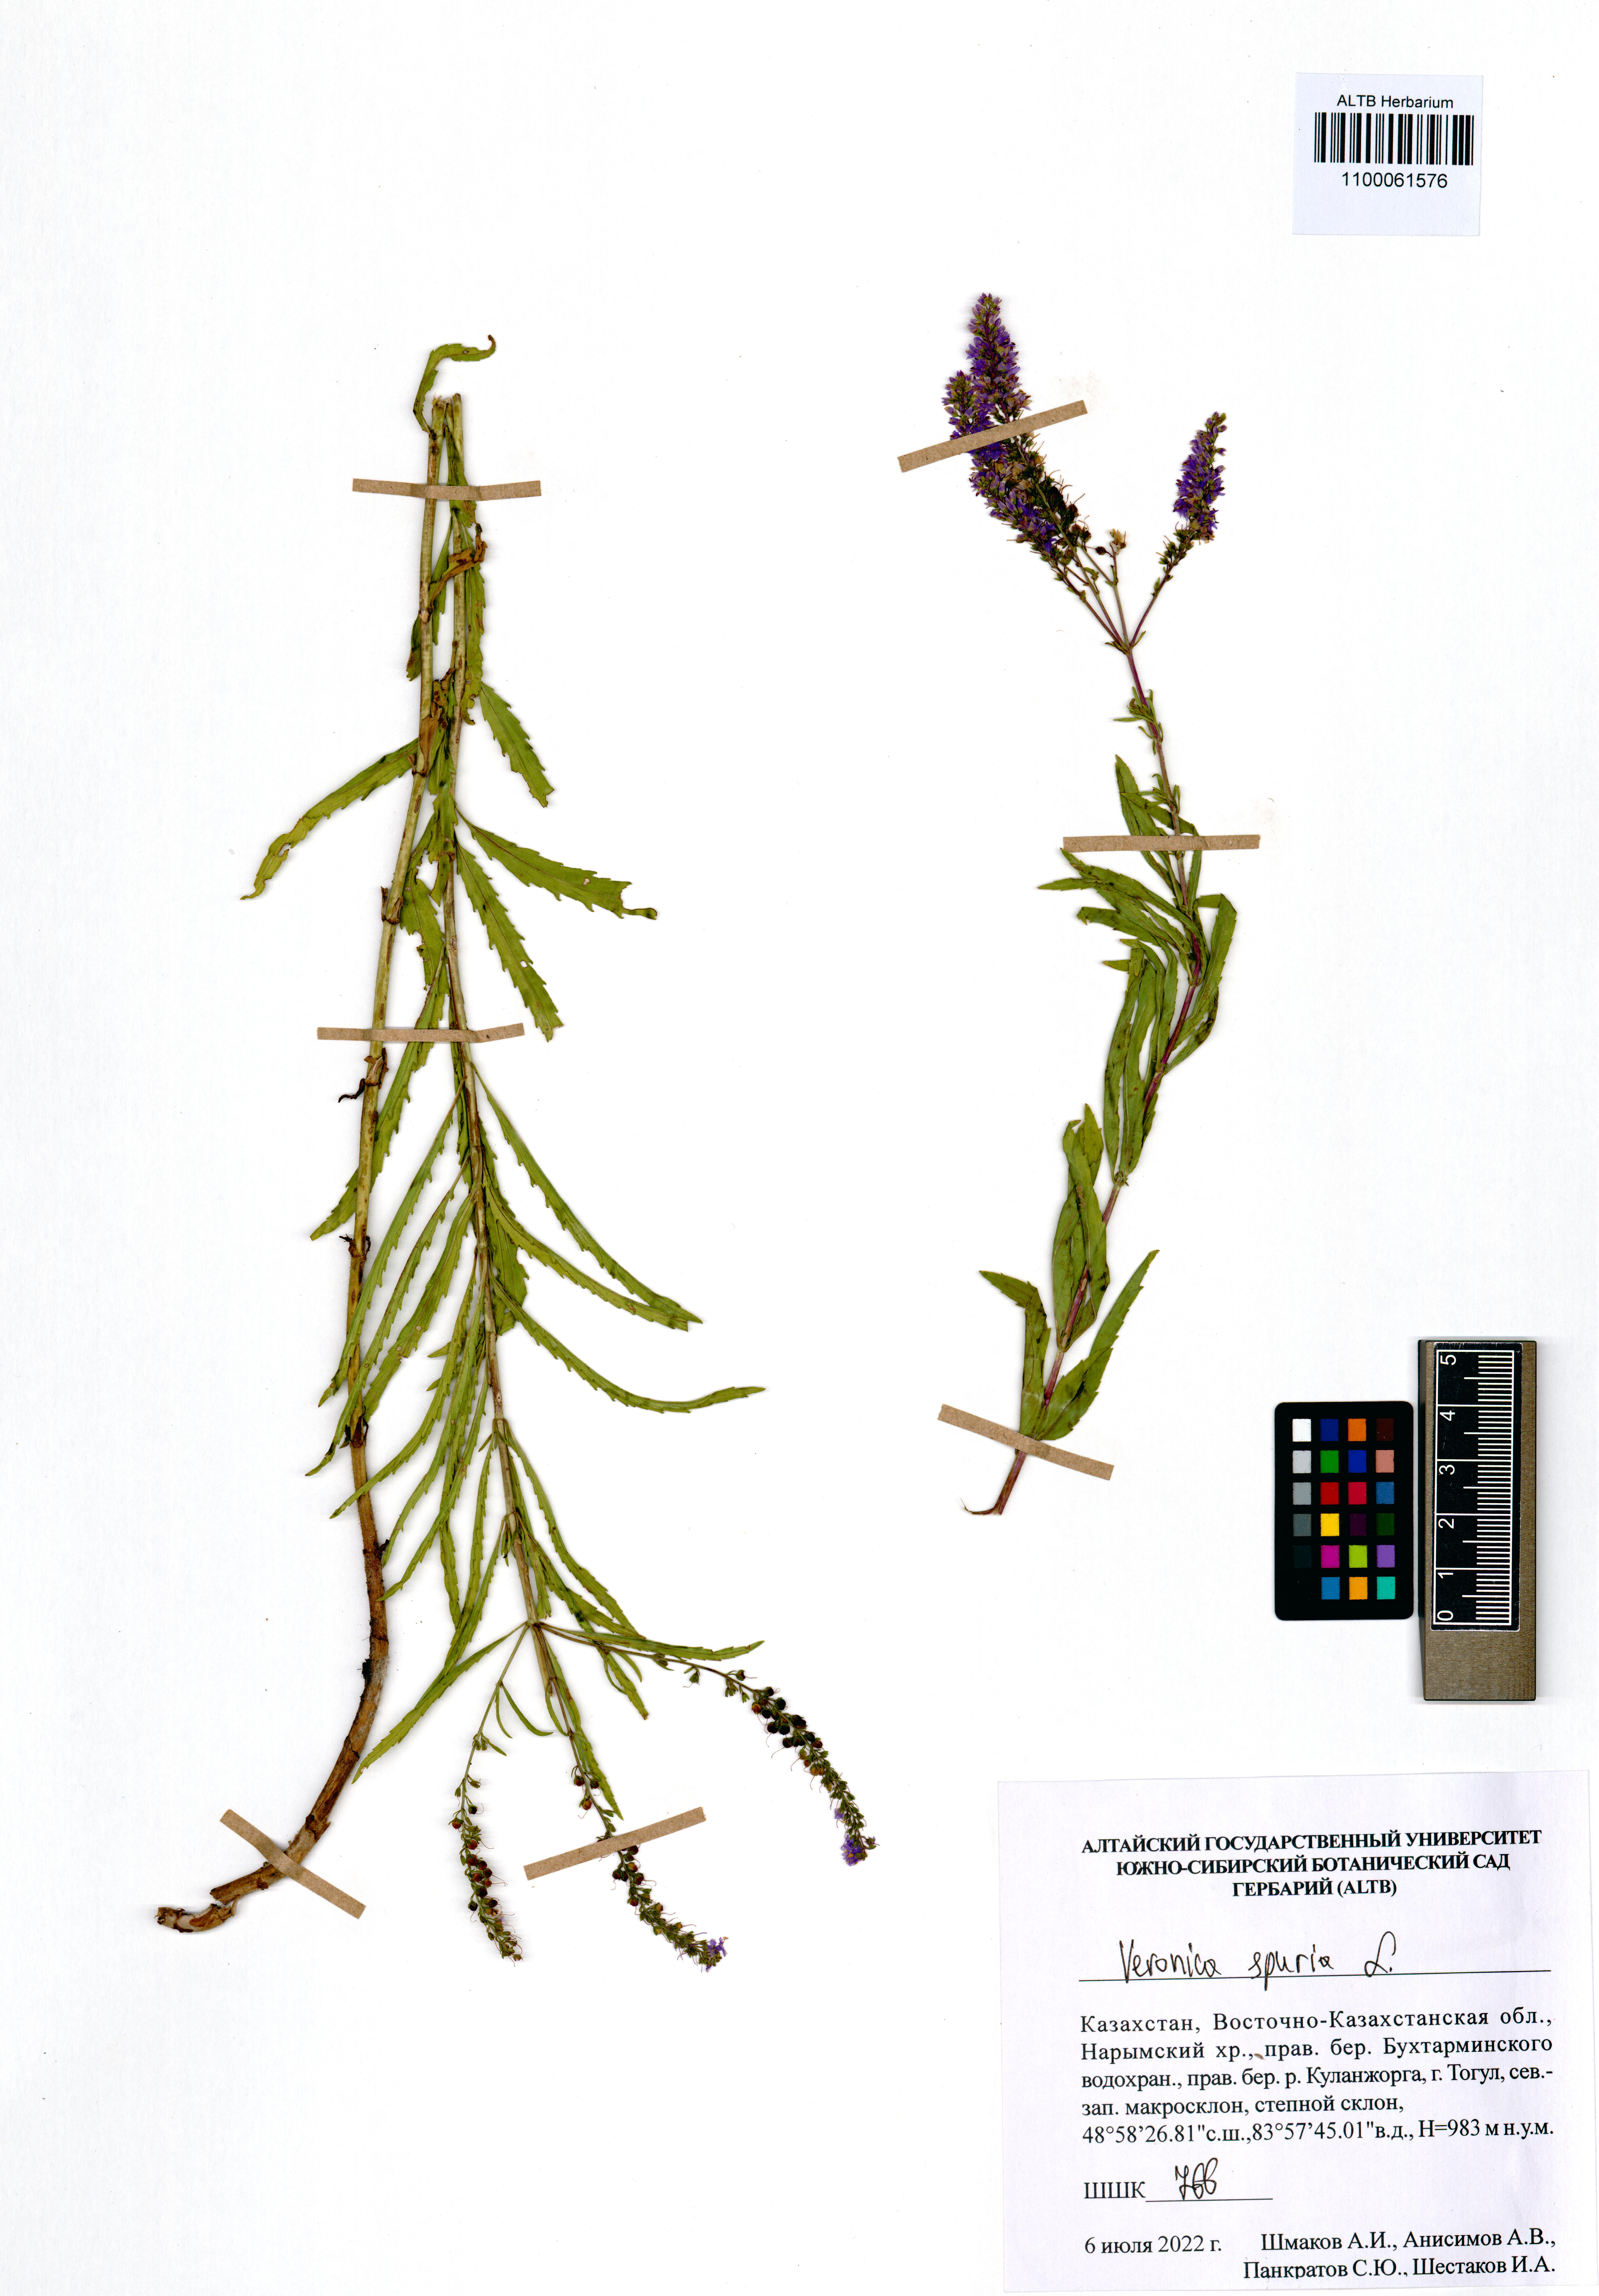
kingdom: Plantae
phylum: Tracheophyta
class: Magnoliopsida
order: Lamiales
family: Plantaginaceae
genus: Veronica
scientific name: Veronica spuria
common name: Bastard speedwell
